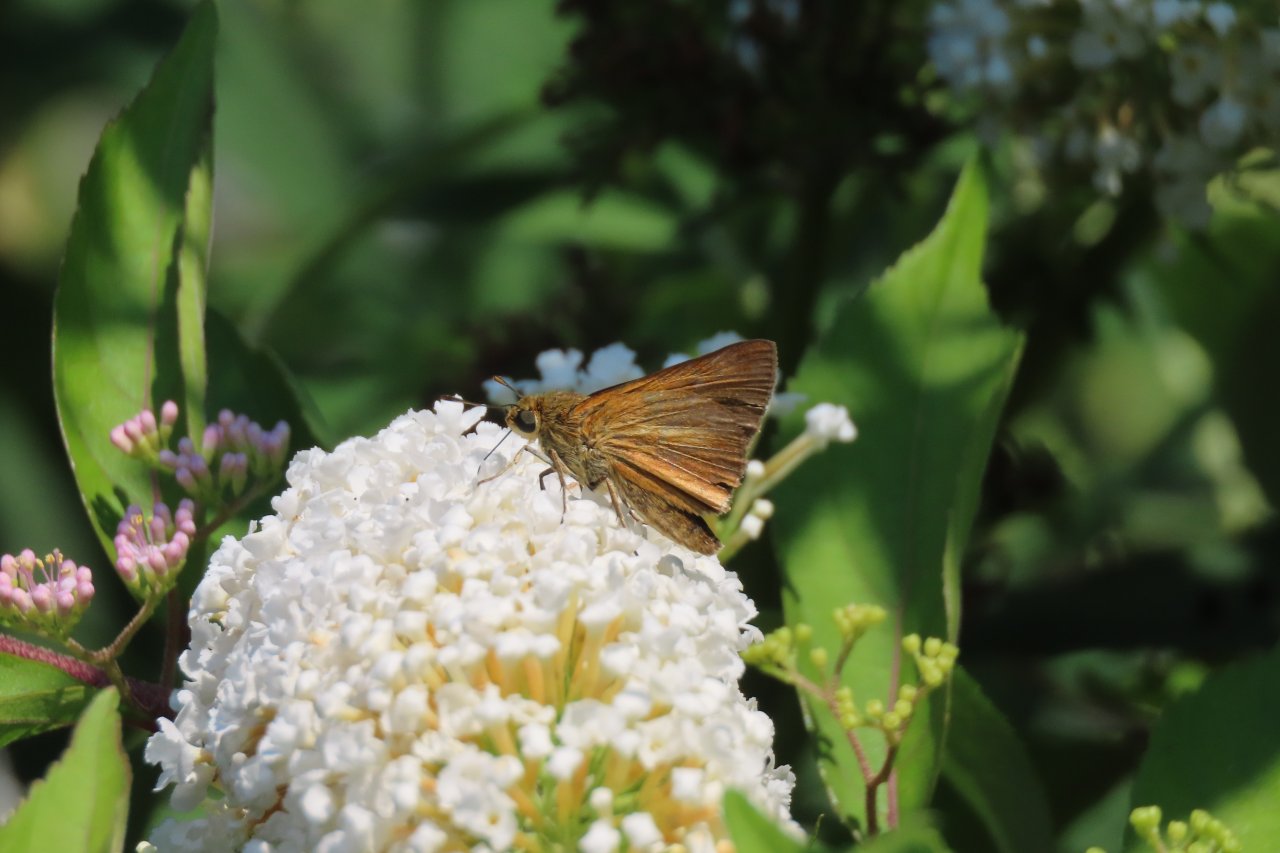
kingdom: Animalia
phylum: Arthropoda
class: Insecta
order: Lepidoptera
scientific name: Lepidoptera
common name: Butterflies
